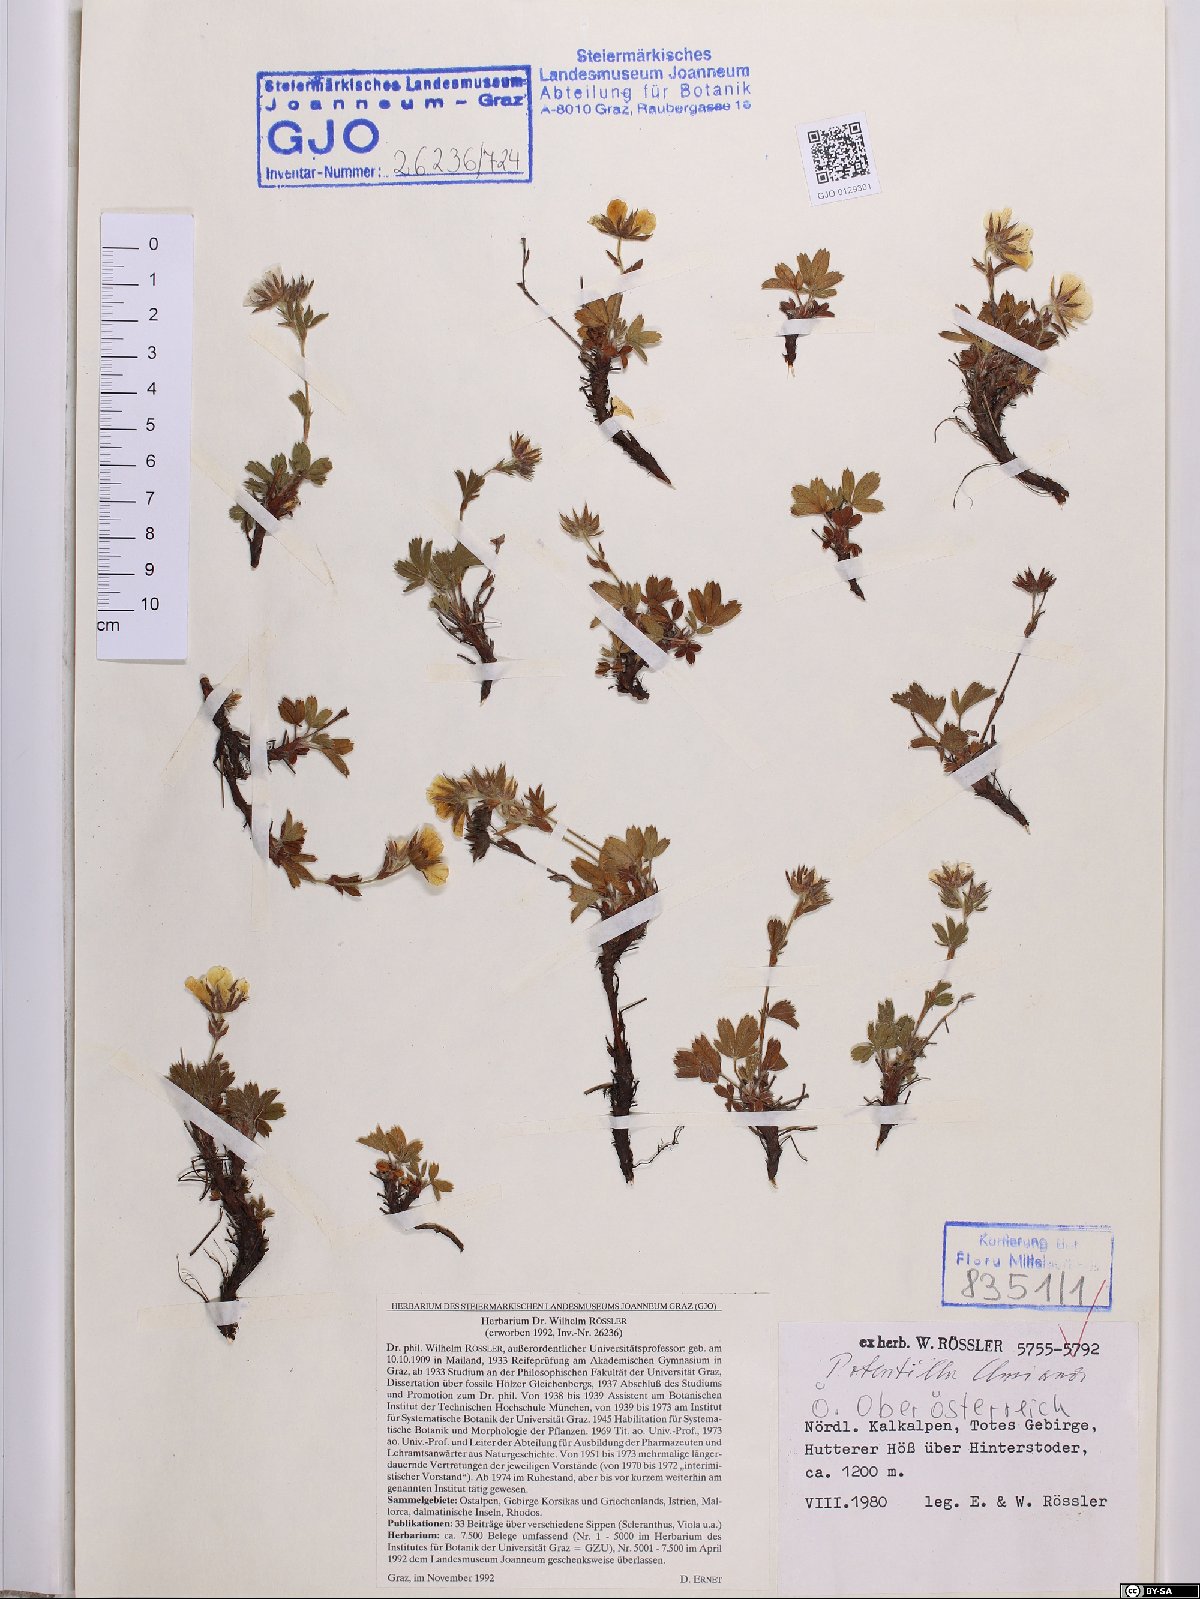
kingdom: Plantae
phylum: Tracheophyta
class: Magnoliopsida
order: Rosales
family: Rosaceae
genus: Potentilla
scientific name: Potentilla clusiana
